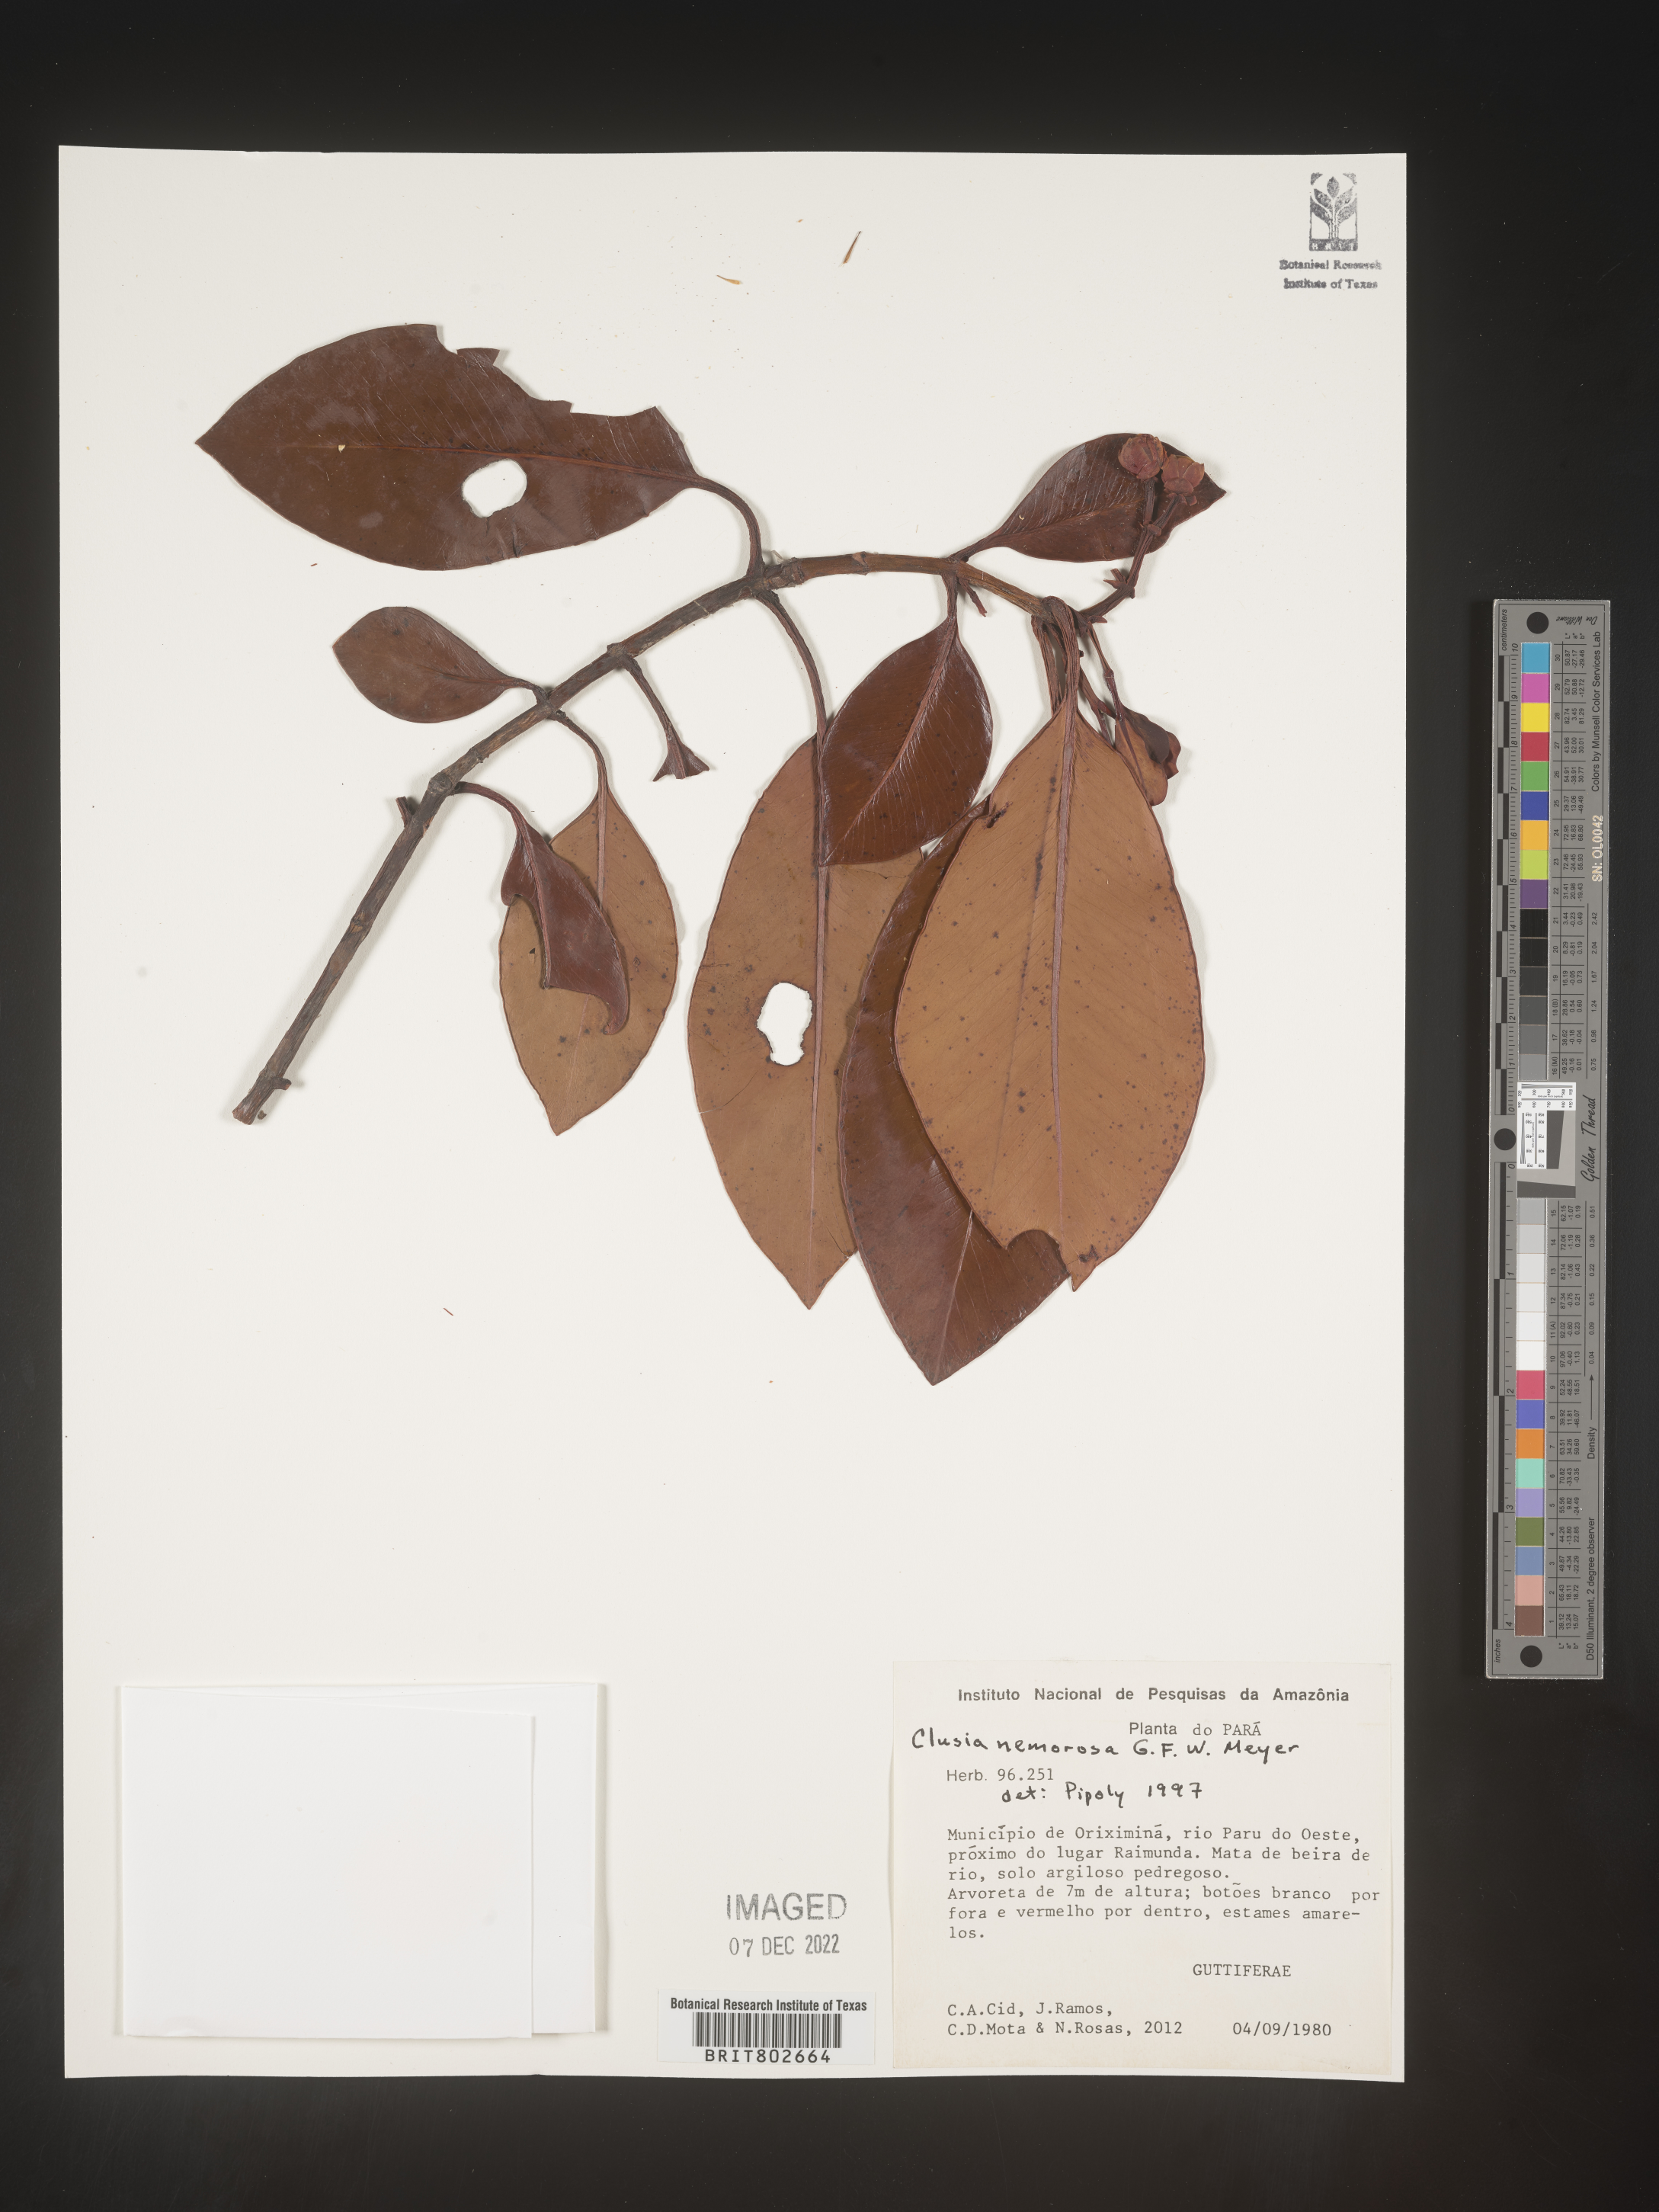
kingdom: Plantae
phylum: Tracheophyta
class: Magnoliopsida
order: Malpighiales
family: Clusiaceae
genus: Clusia
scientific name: Clusia nemorosa
